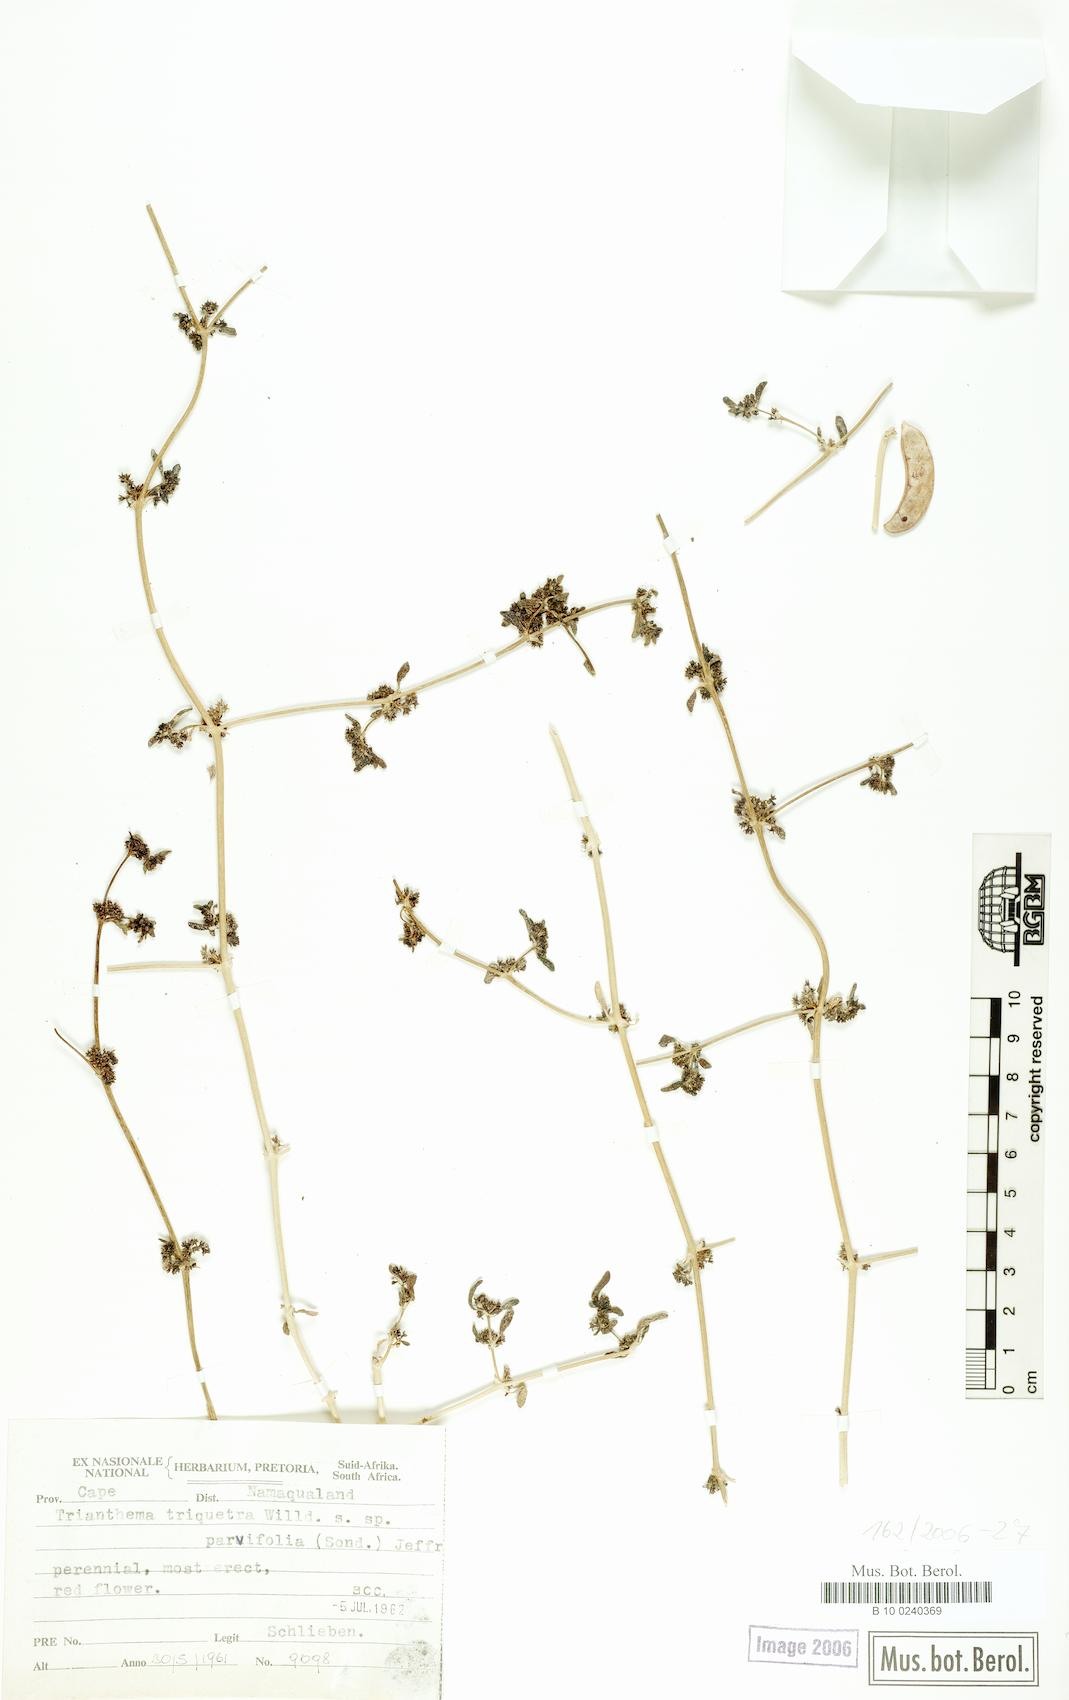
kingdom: Plantae
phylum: Tracheophyta
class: Magnoliopsida
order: Caryophyllales
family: Aizoaceae
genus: Trianthema
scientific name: Trianthema parvifolium
